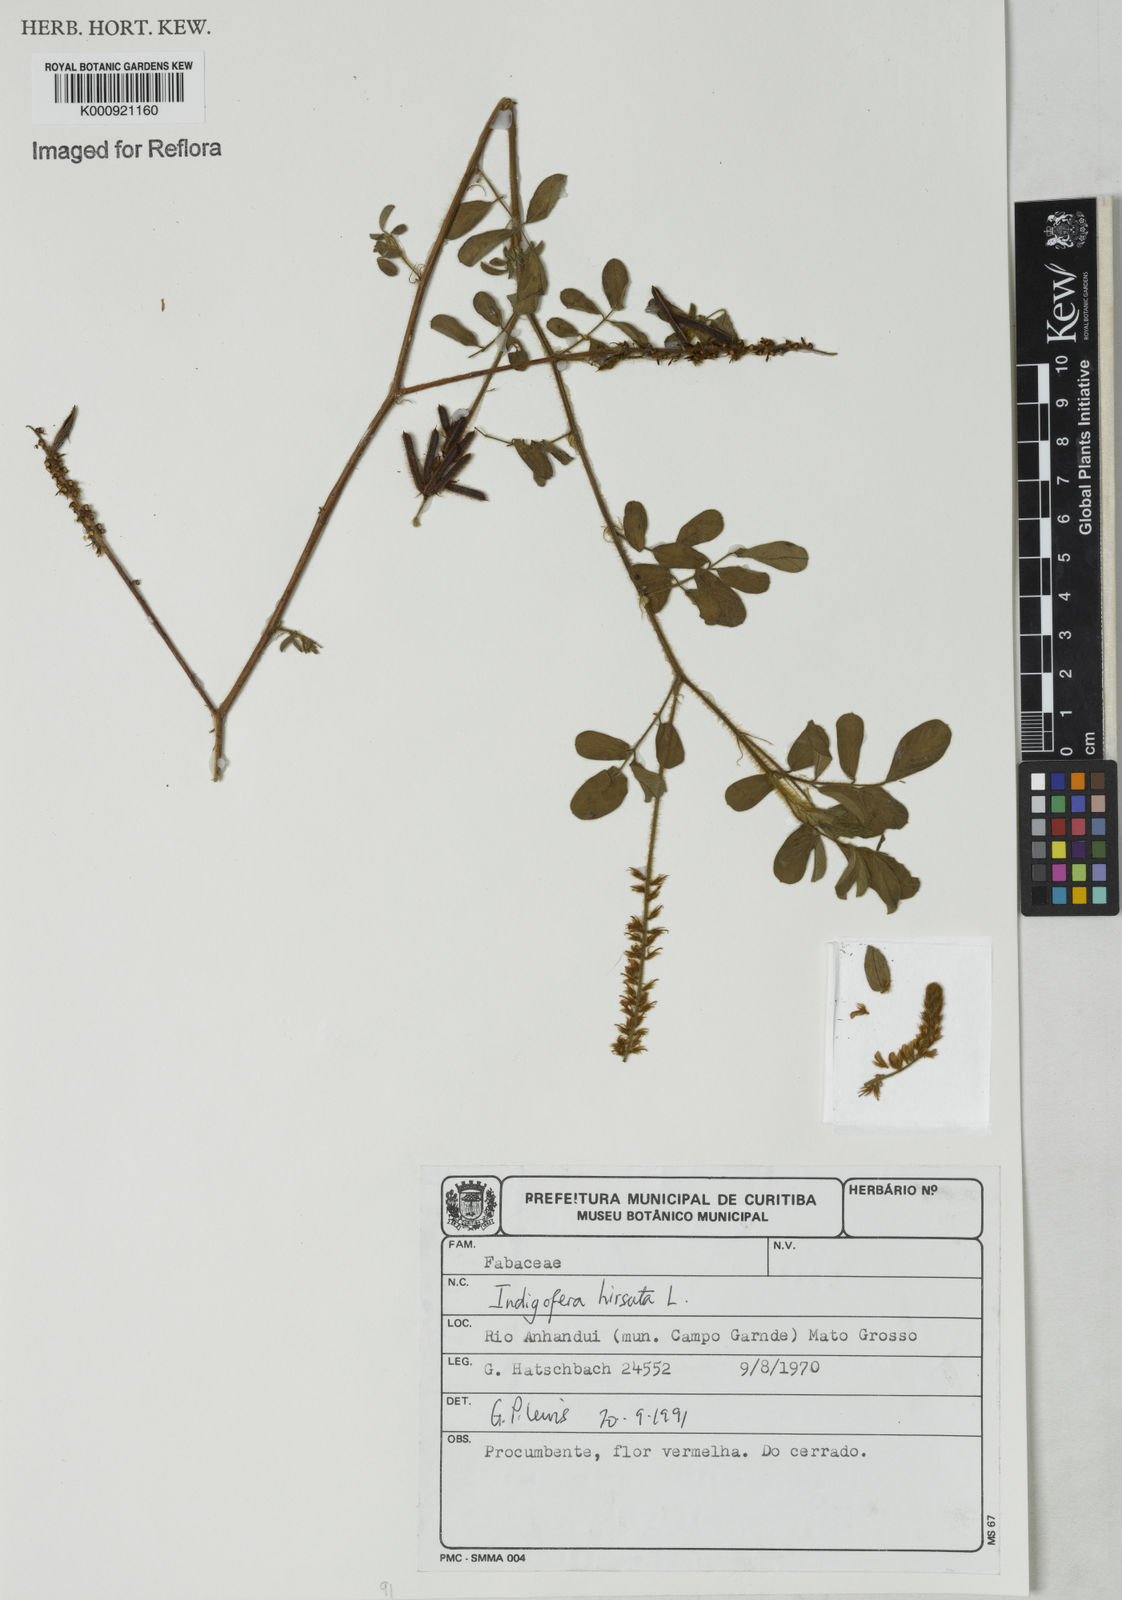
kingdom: Plantae
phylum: Tracheophyta
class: Magnoliopsida
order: Fabales
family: Fabaceae
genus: Indigofera
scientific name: Indigofera hirsuta
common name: Hairy indigo
